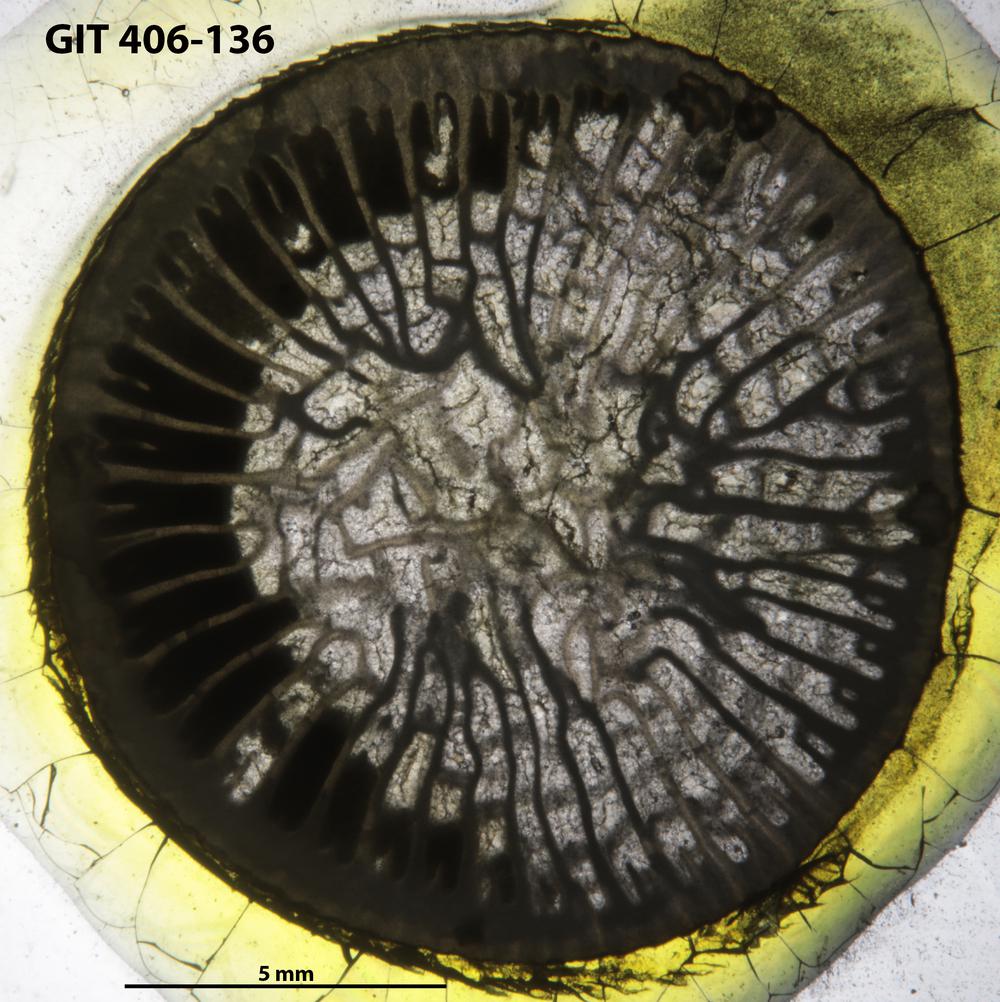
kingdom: Animalia
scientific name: Animalia
